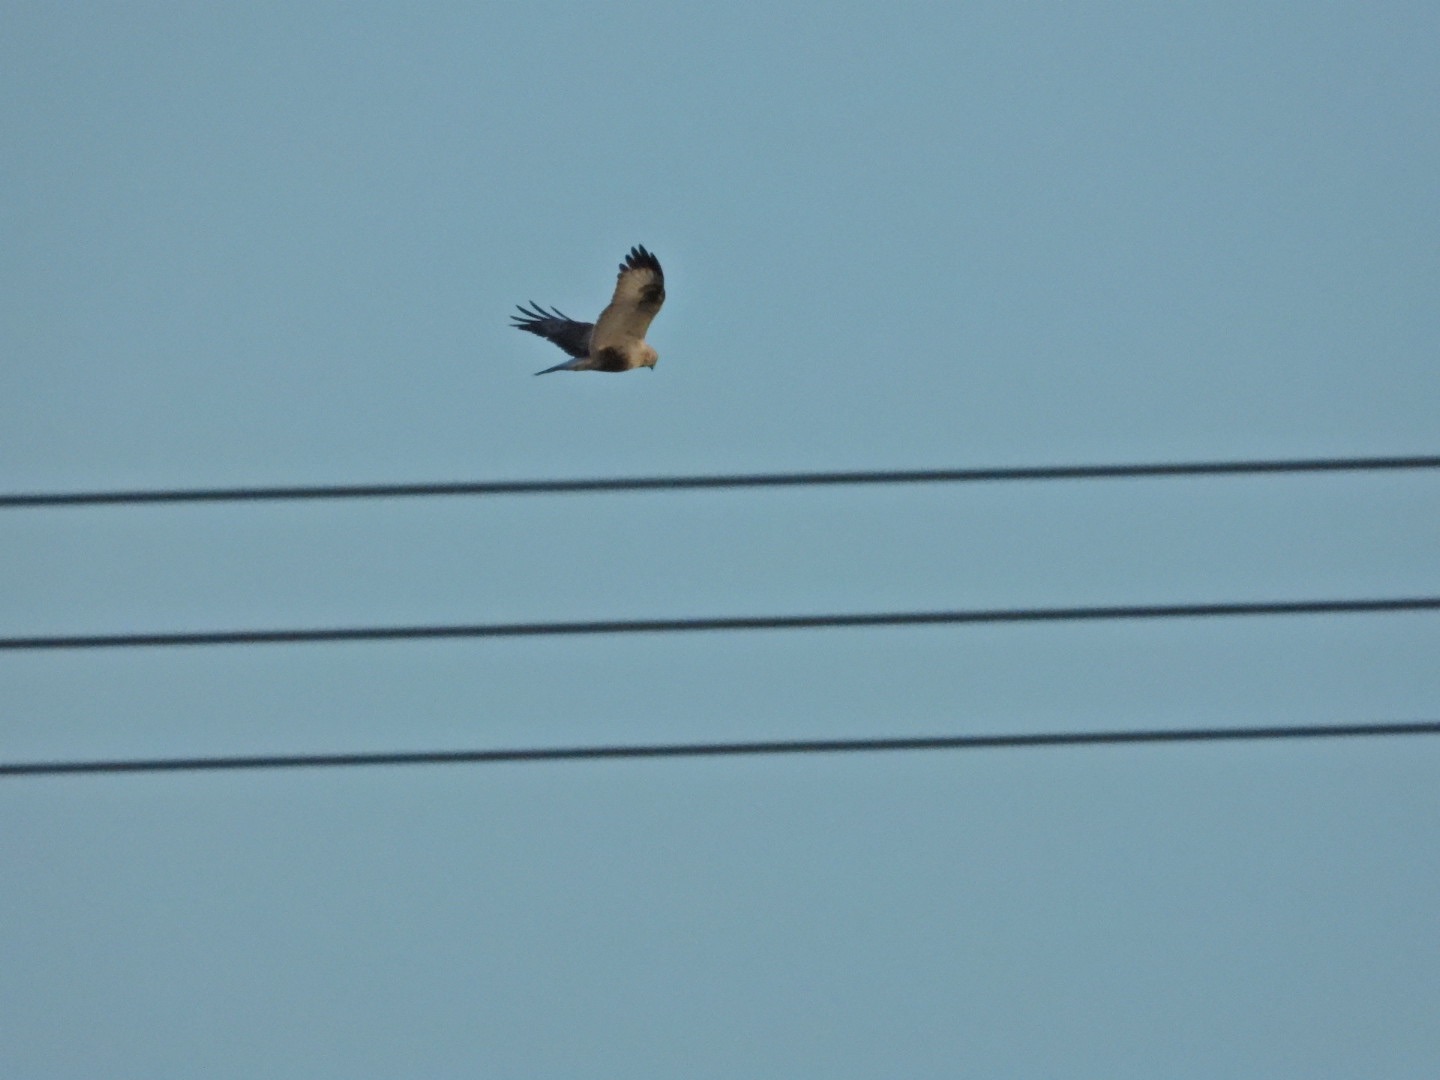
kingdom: Animalia
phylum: Chordata
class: Aves
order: Accipitriformes
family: Accipitridae
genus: Buteo
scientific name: Buteo lagopus
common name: Fjeldvåge
